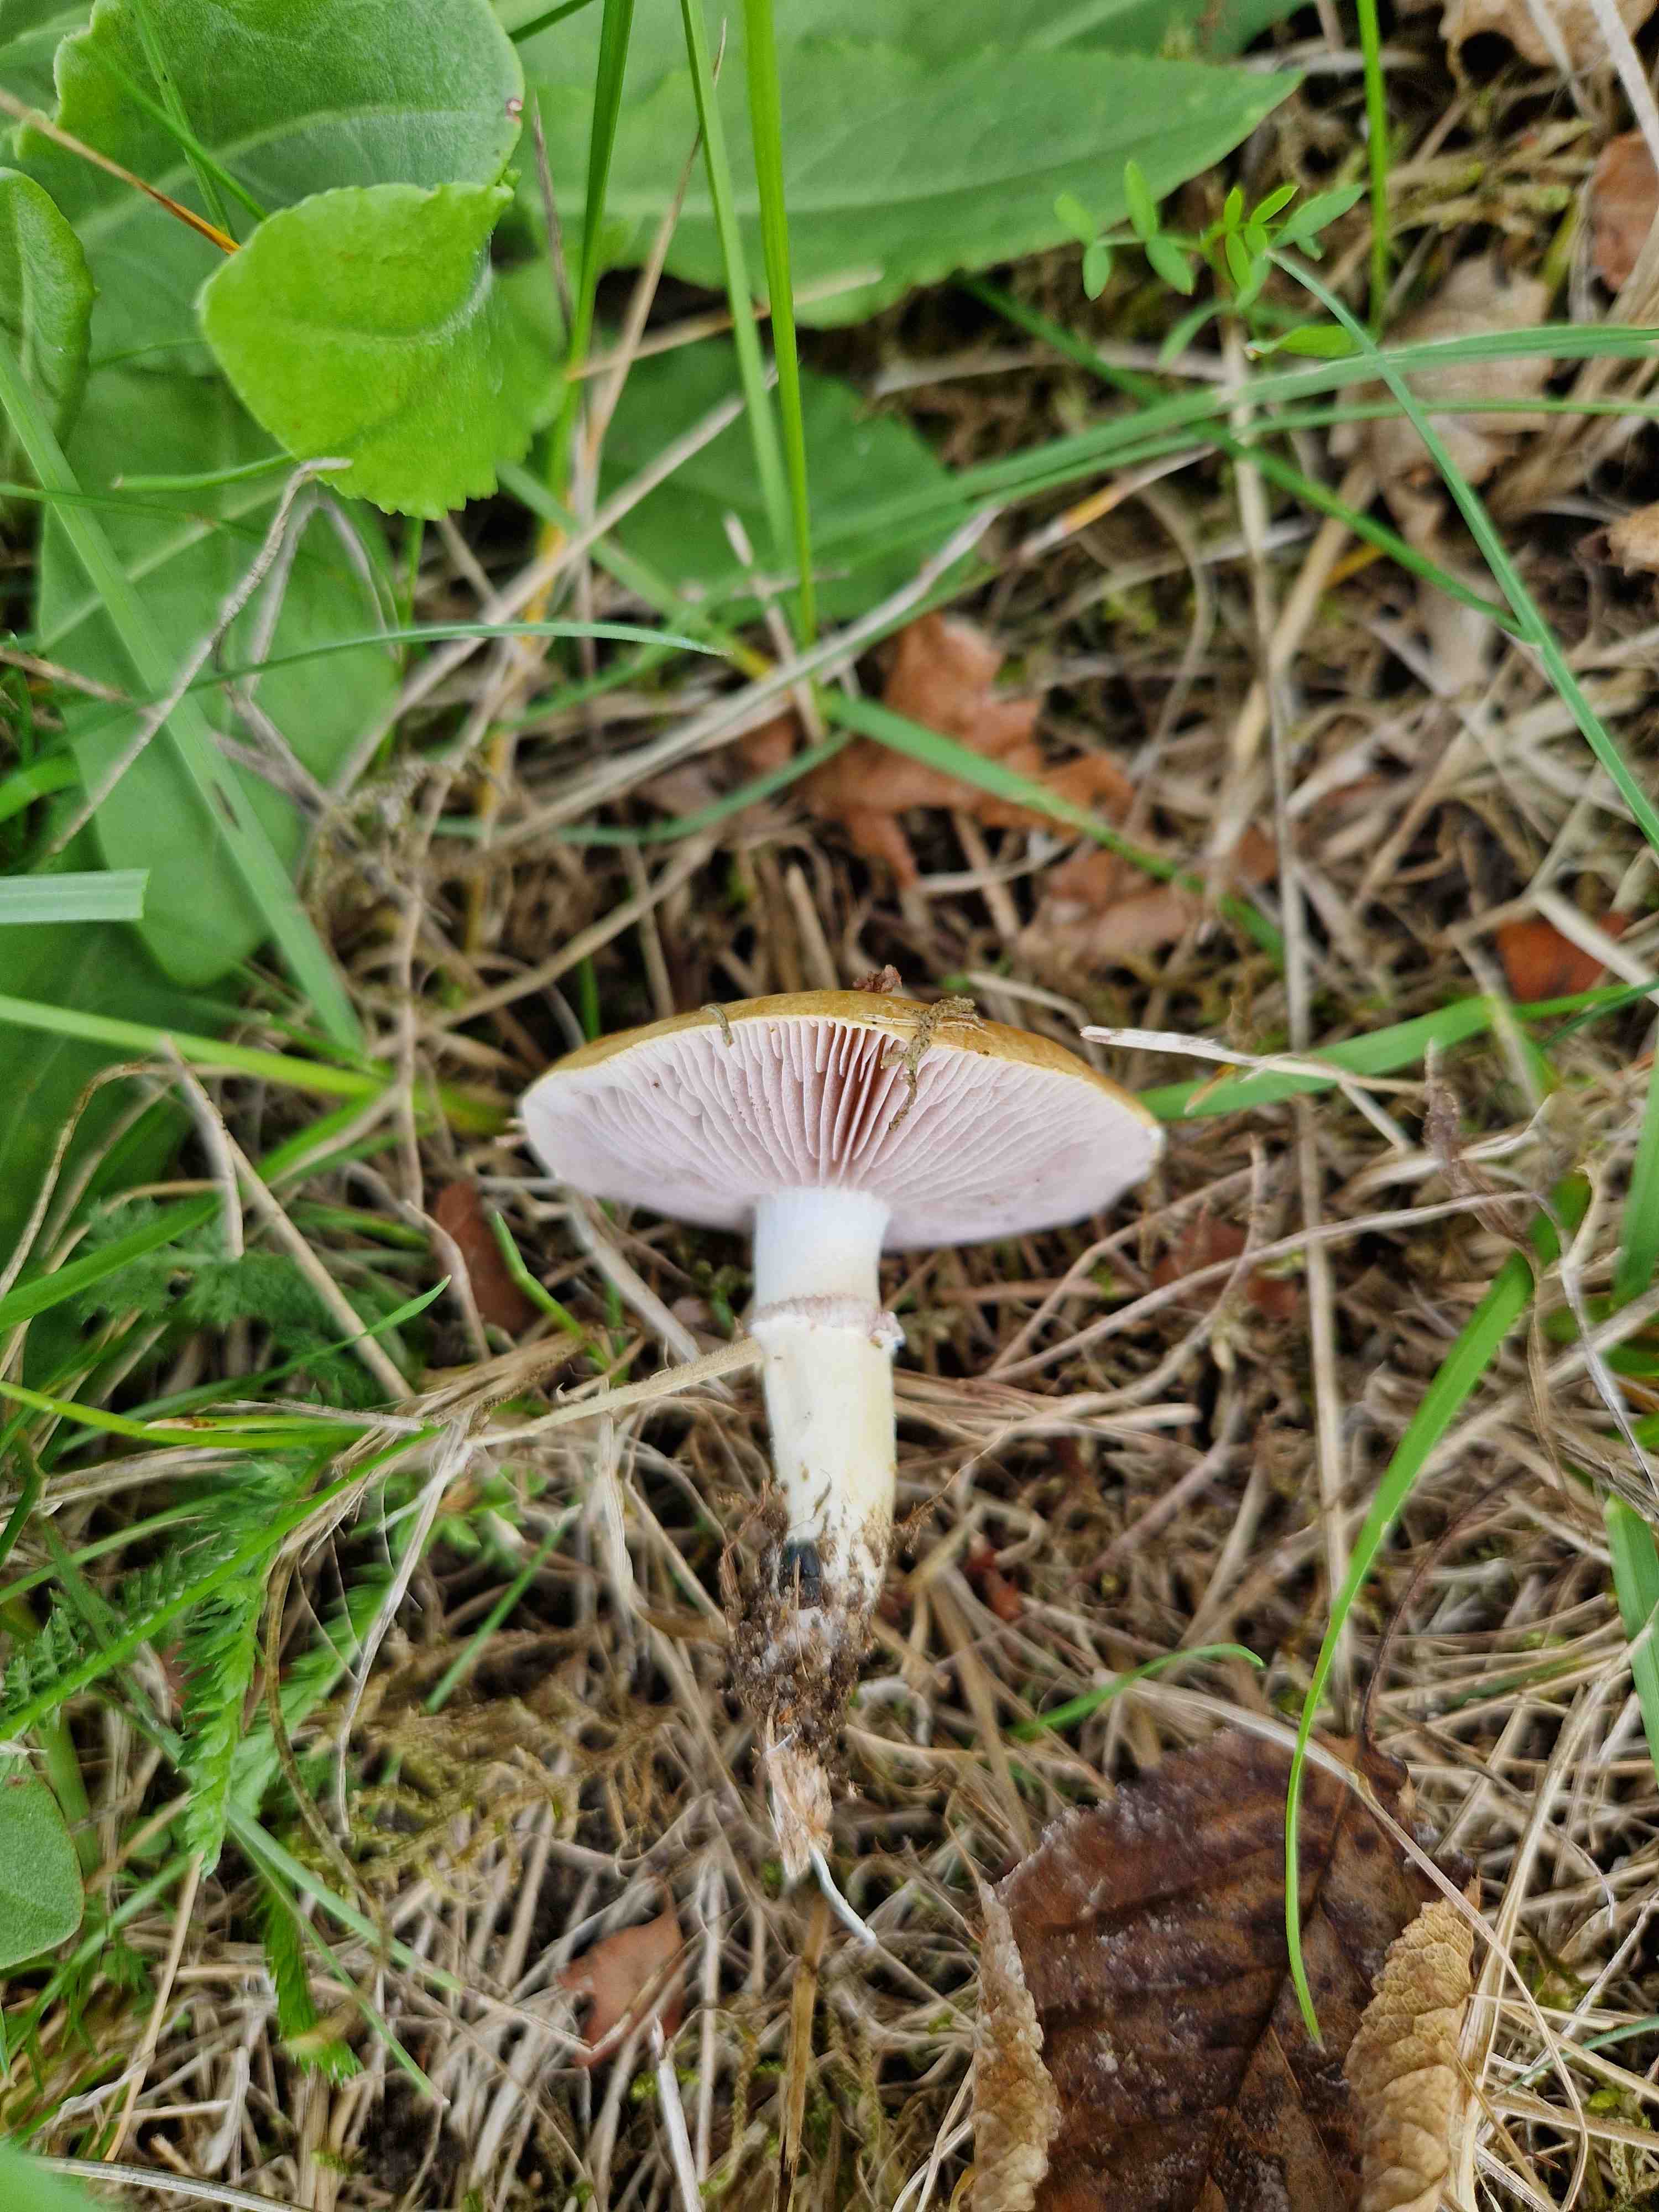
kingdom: Fungi
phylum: Basidiomycota
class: Agaricomycetes
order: Agaricales
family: Hymenogastraceae
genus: Psilocybe
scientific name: Psilocybe coronilla
